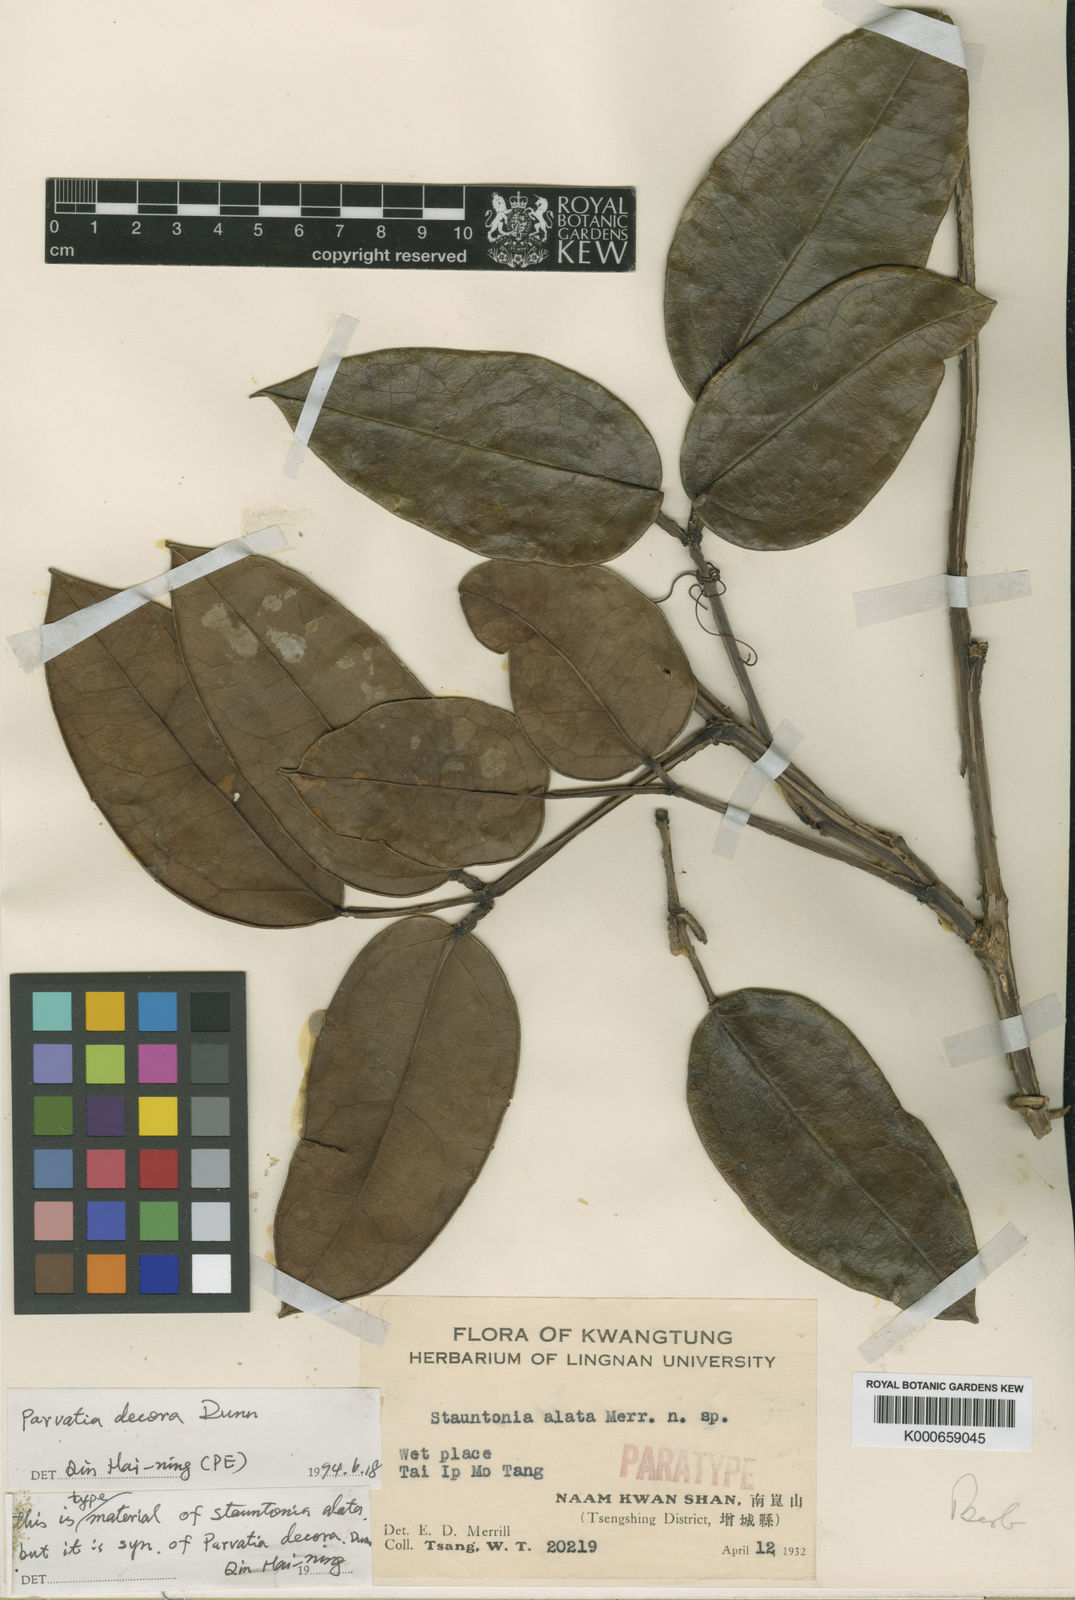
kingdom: Plantae
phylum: Tracheophyta
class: Magnoliopsida
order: Ranunculales
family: Lardizabalaceae
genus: Stauntonia
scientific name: Stauntonia
